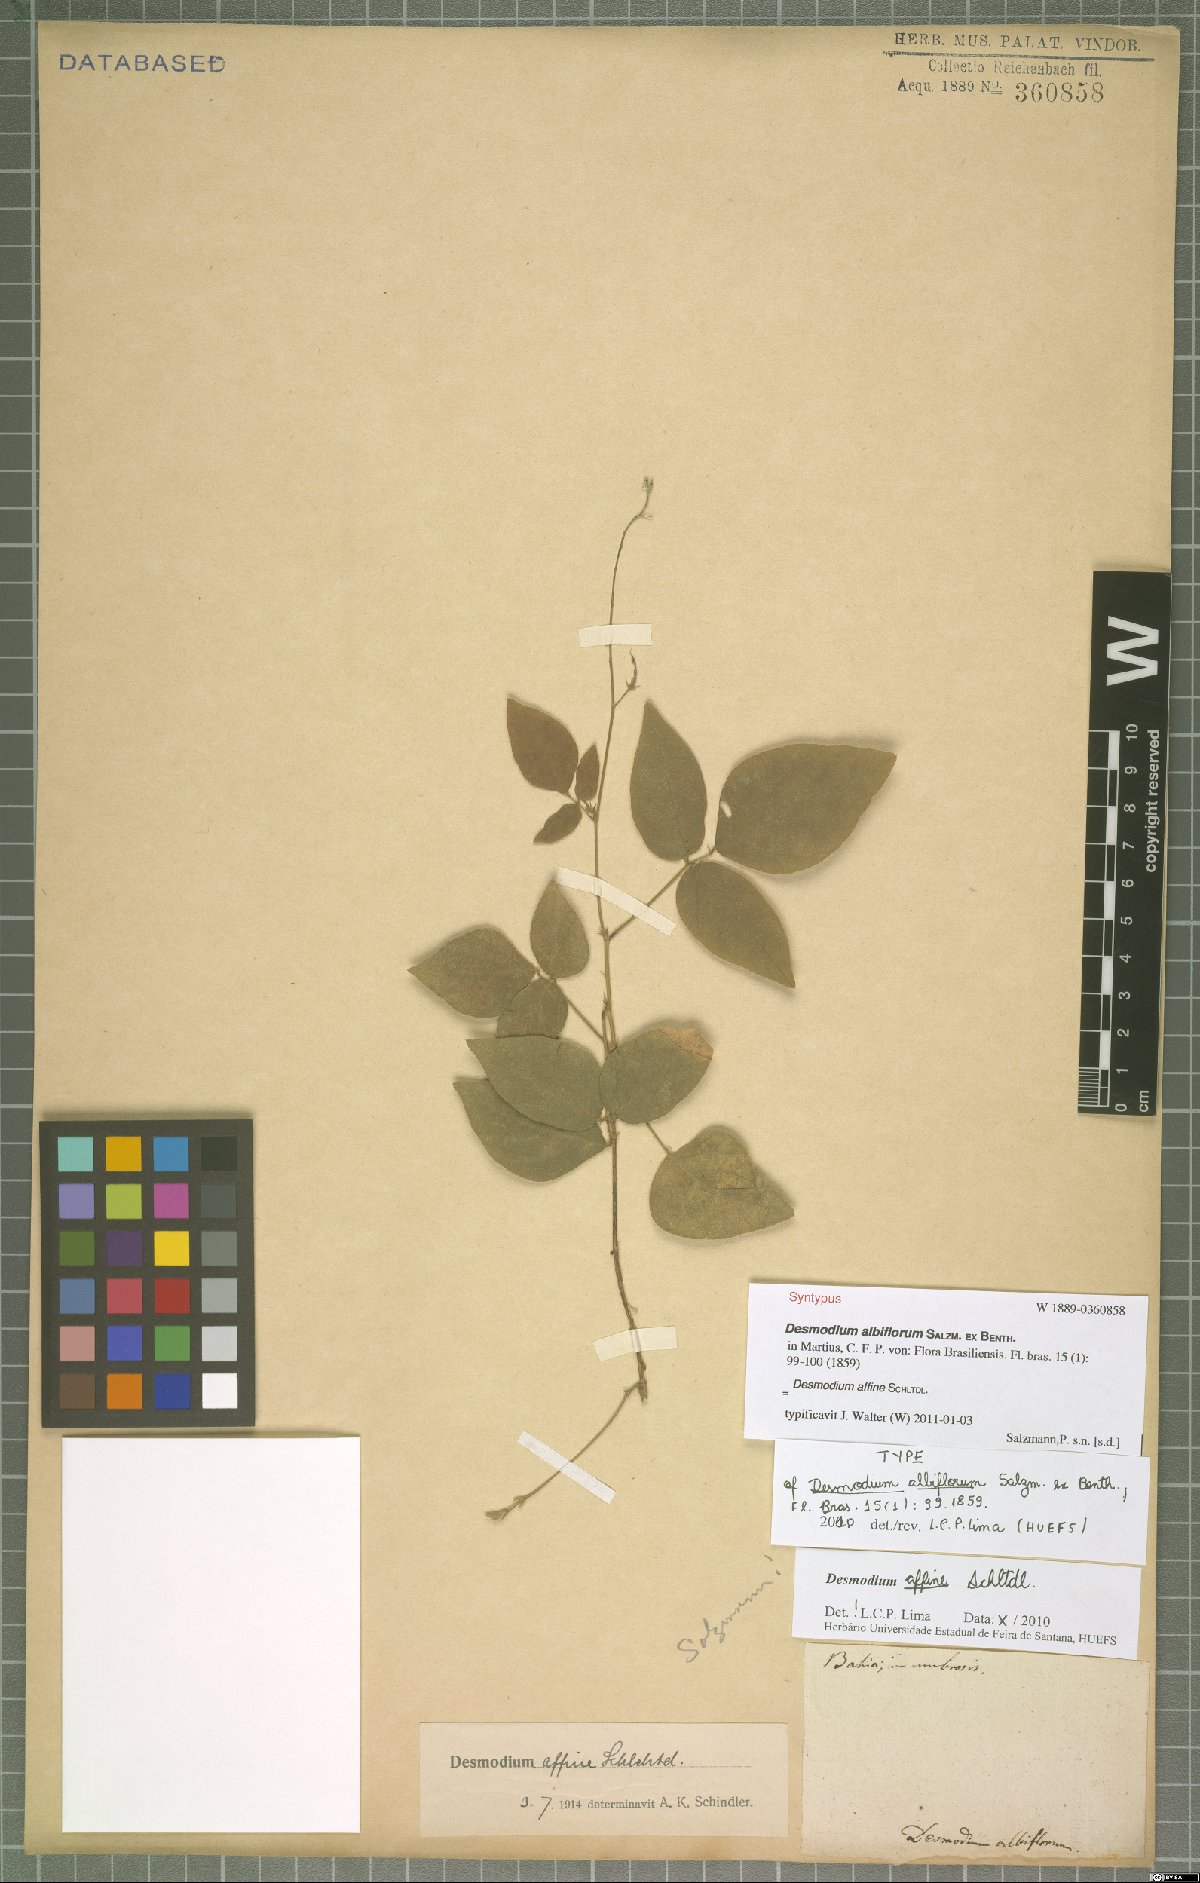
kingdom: Plantae
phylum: Tracheophyta
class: Magnoliopsida
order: Fabales
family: Fabaceae
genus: Desmodium
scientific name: Desmodium affine
